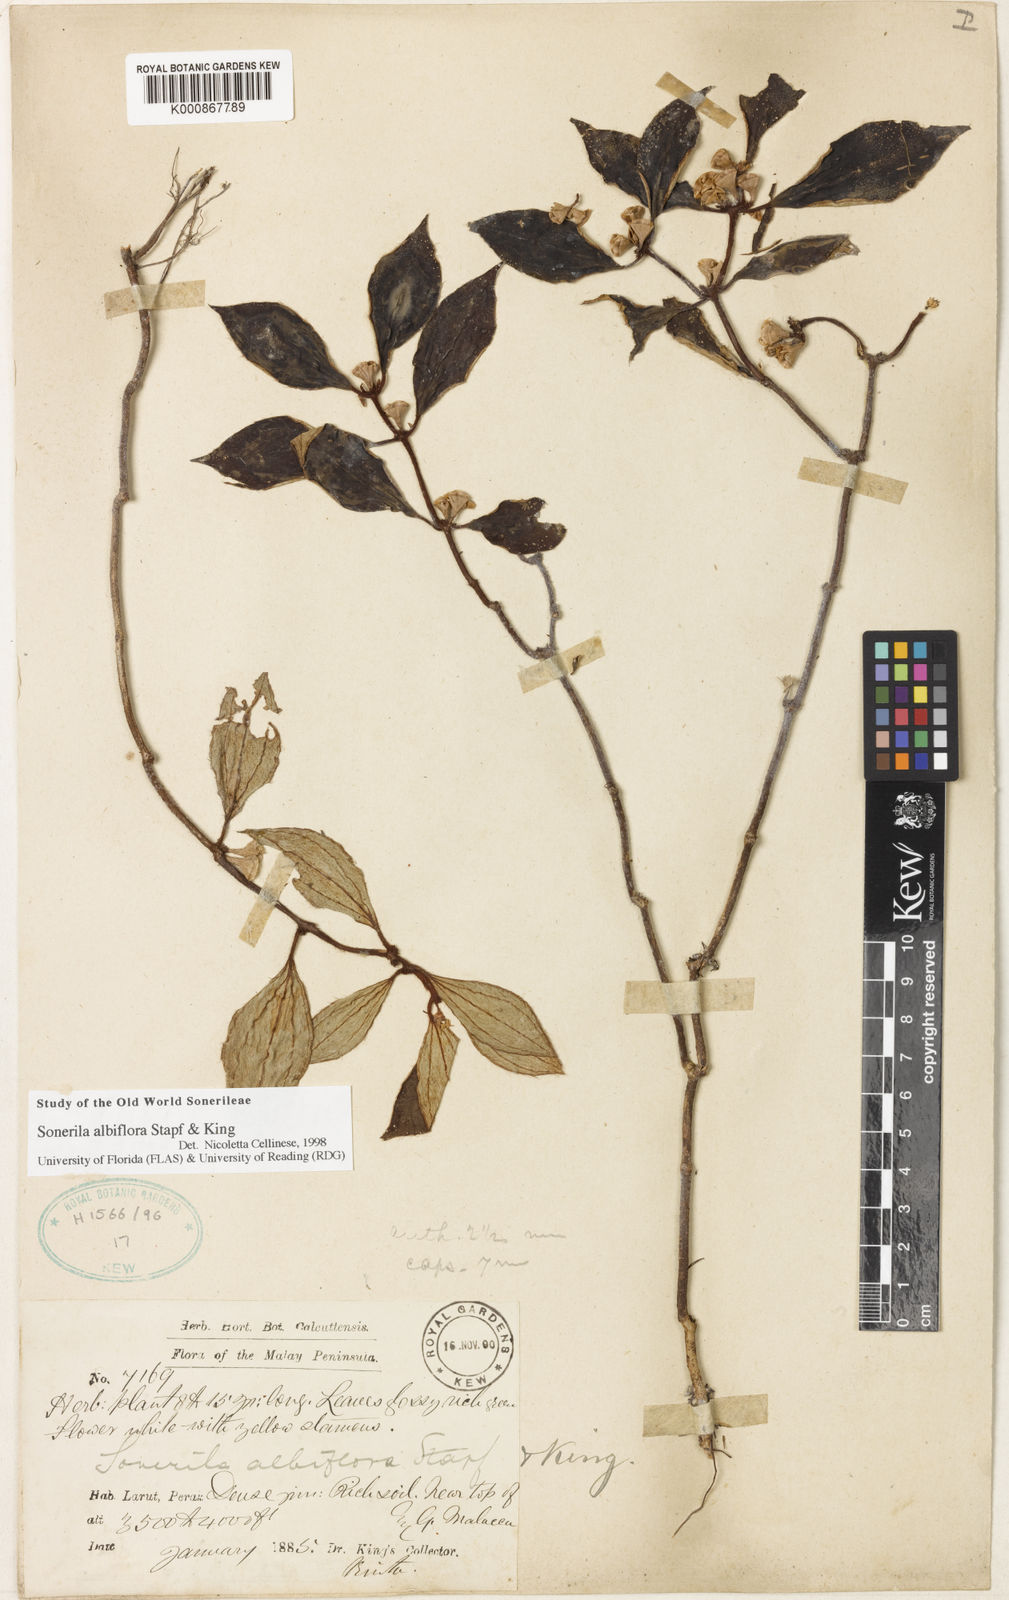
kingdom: Plantae
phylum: Tracheophyta
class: Magnoliopsida
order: Myrtales
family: Melastomataceae
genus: Sonerila
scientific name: Sonerila albiflora
